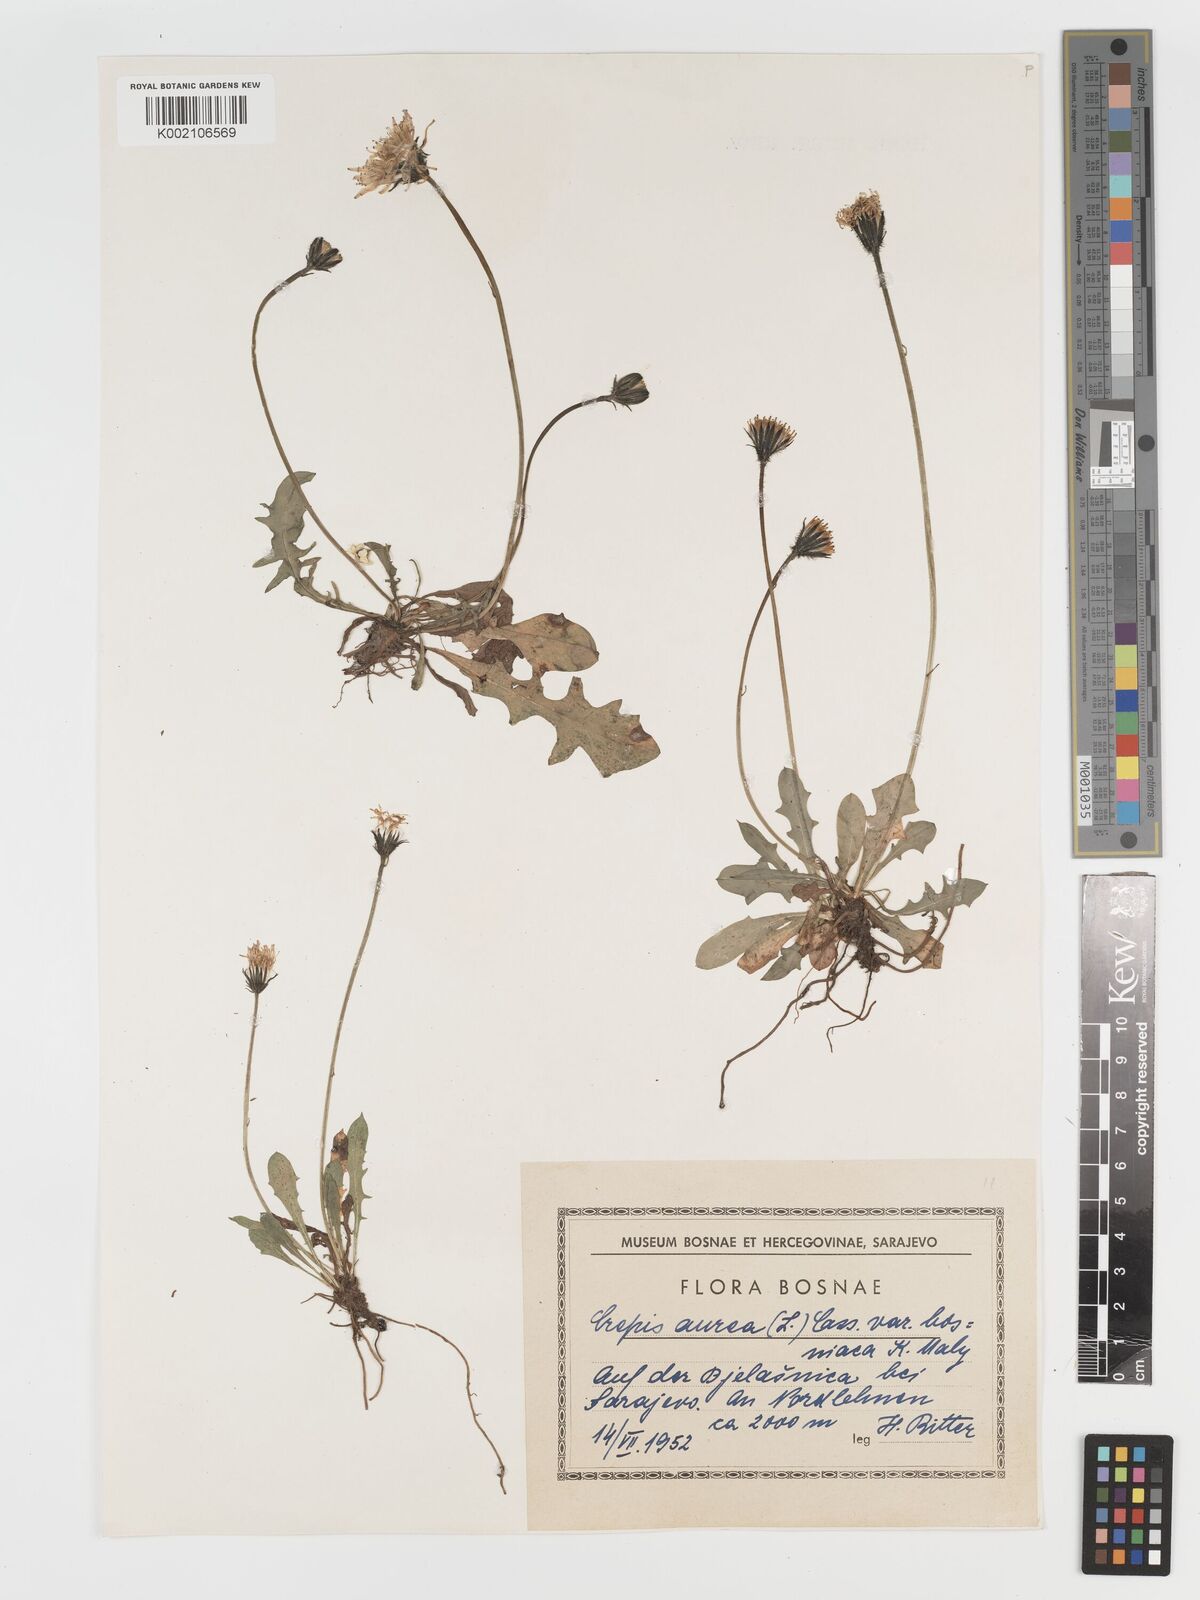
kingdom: Plantae
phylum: Tracheophyta
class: Magnoliopsida
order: Asterales
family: Asteraceae
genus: Crepis
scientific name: Crepis aurea
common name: Golden hawk's-beard
